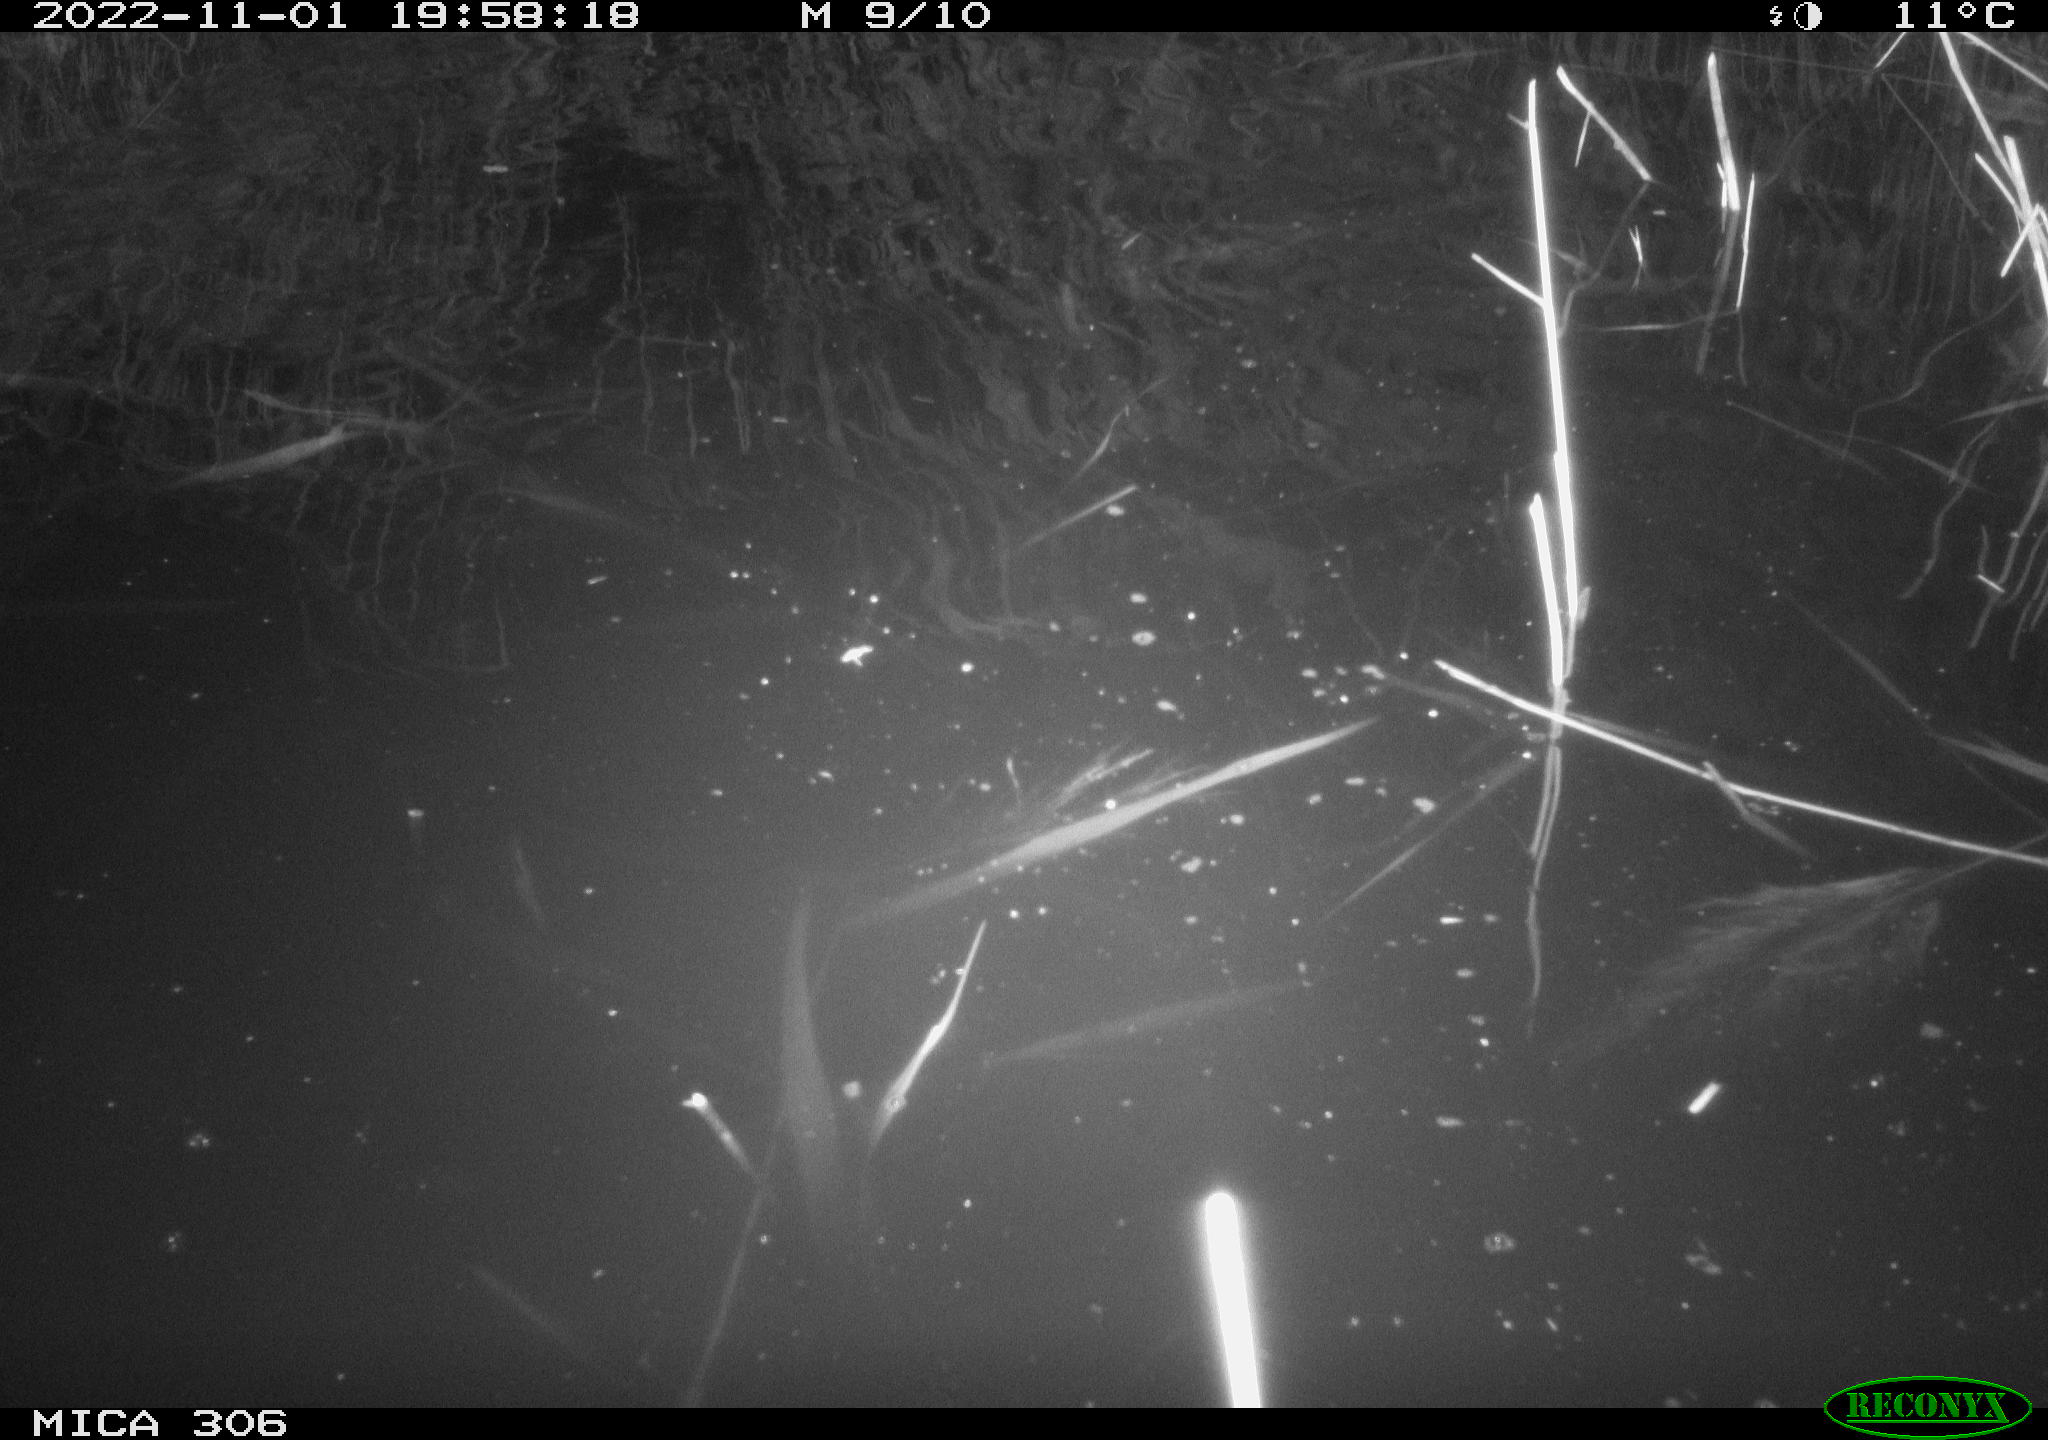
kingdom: Animalia
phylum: Chordata
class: Mammalia
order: Rodentia
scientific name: Rodentia
